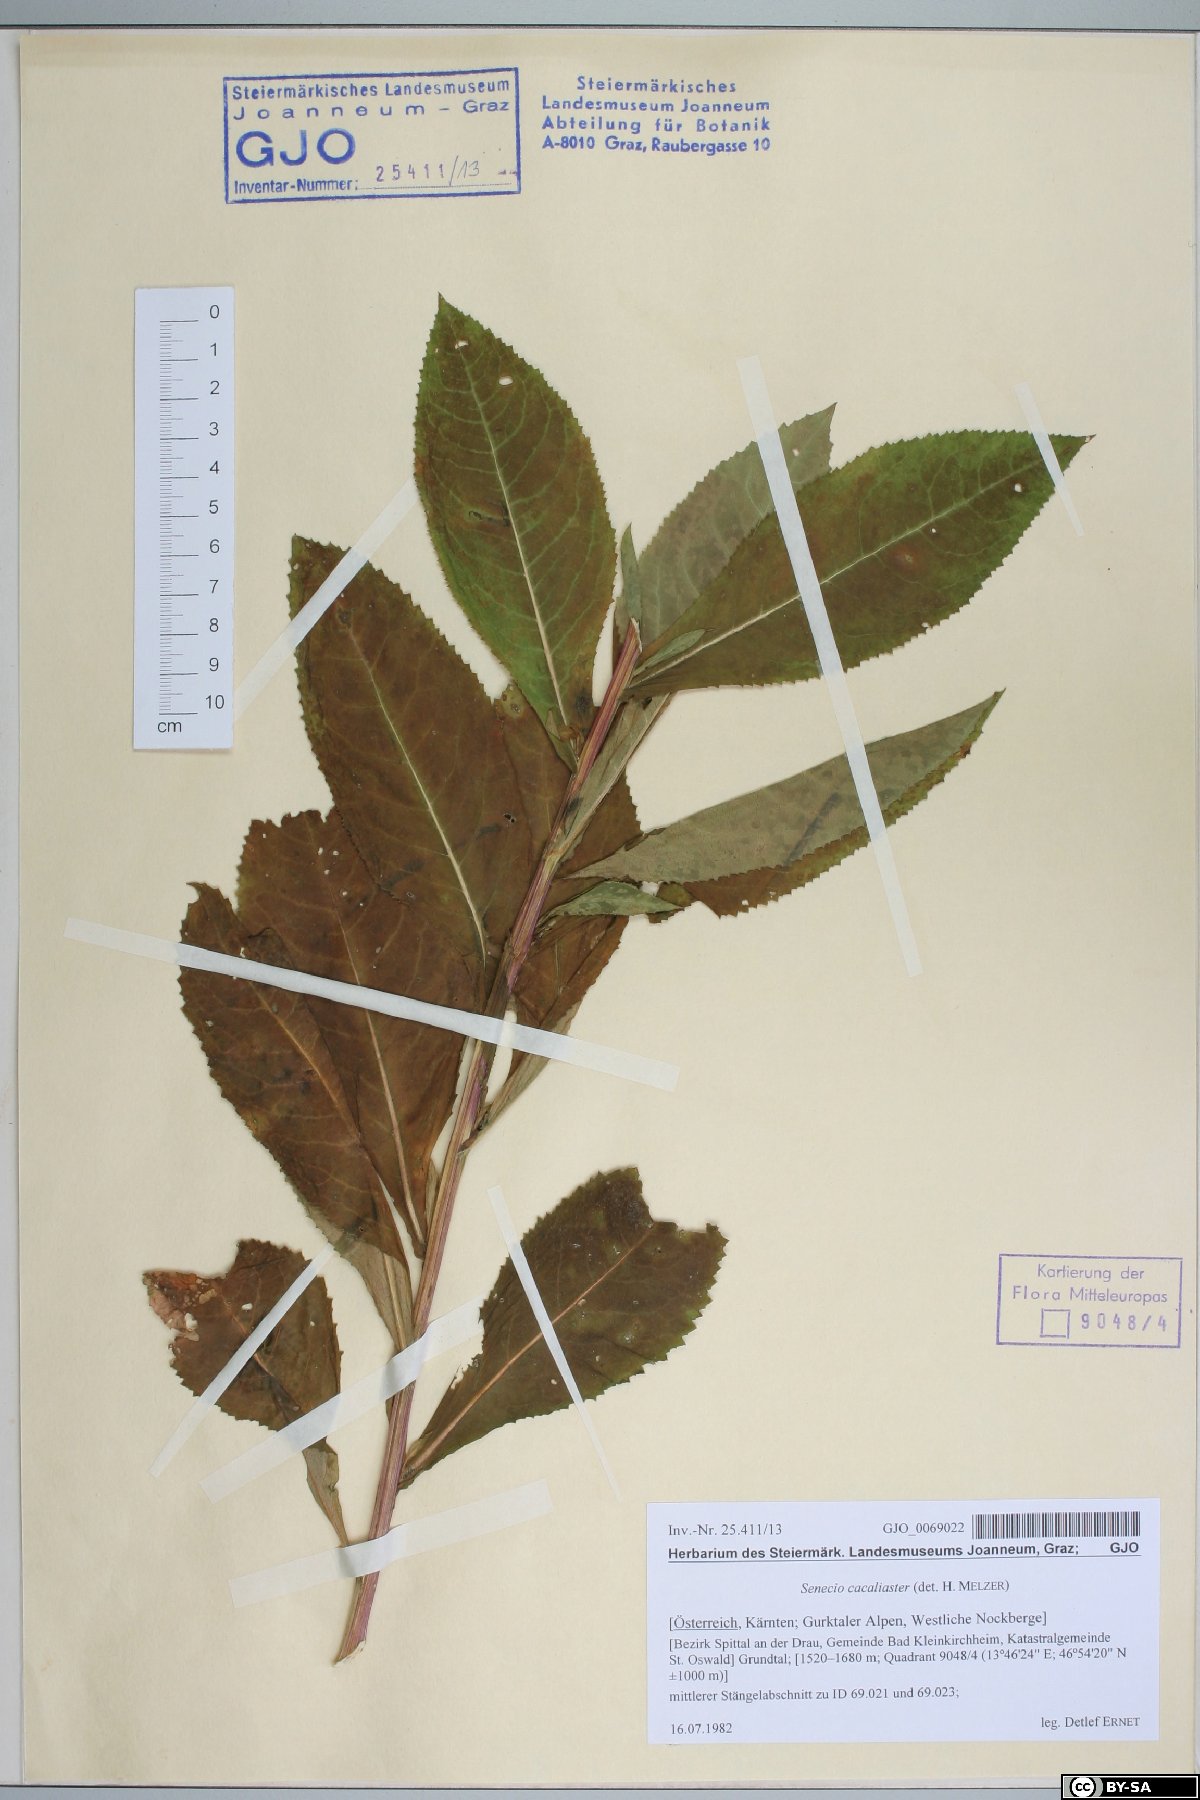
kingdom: Plantae
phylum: Tracheophyta
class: Magnoliopsida
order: Asterales
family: Asteraceae
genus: Senecio
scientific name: Senecio cacaliaster
